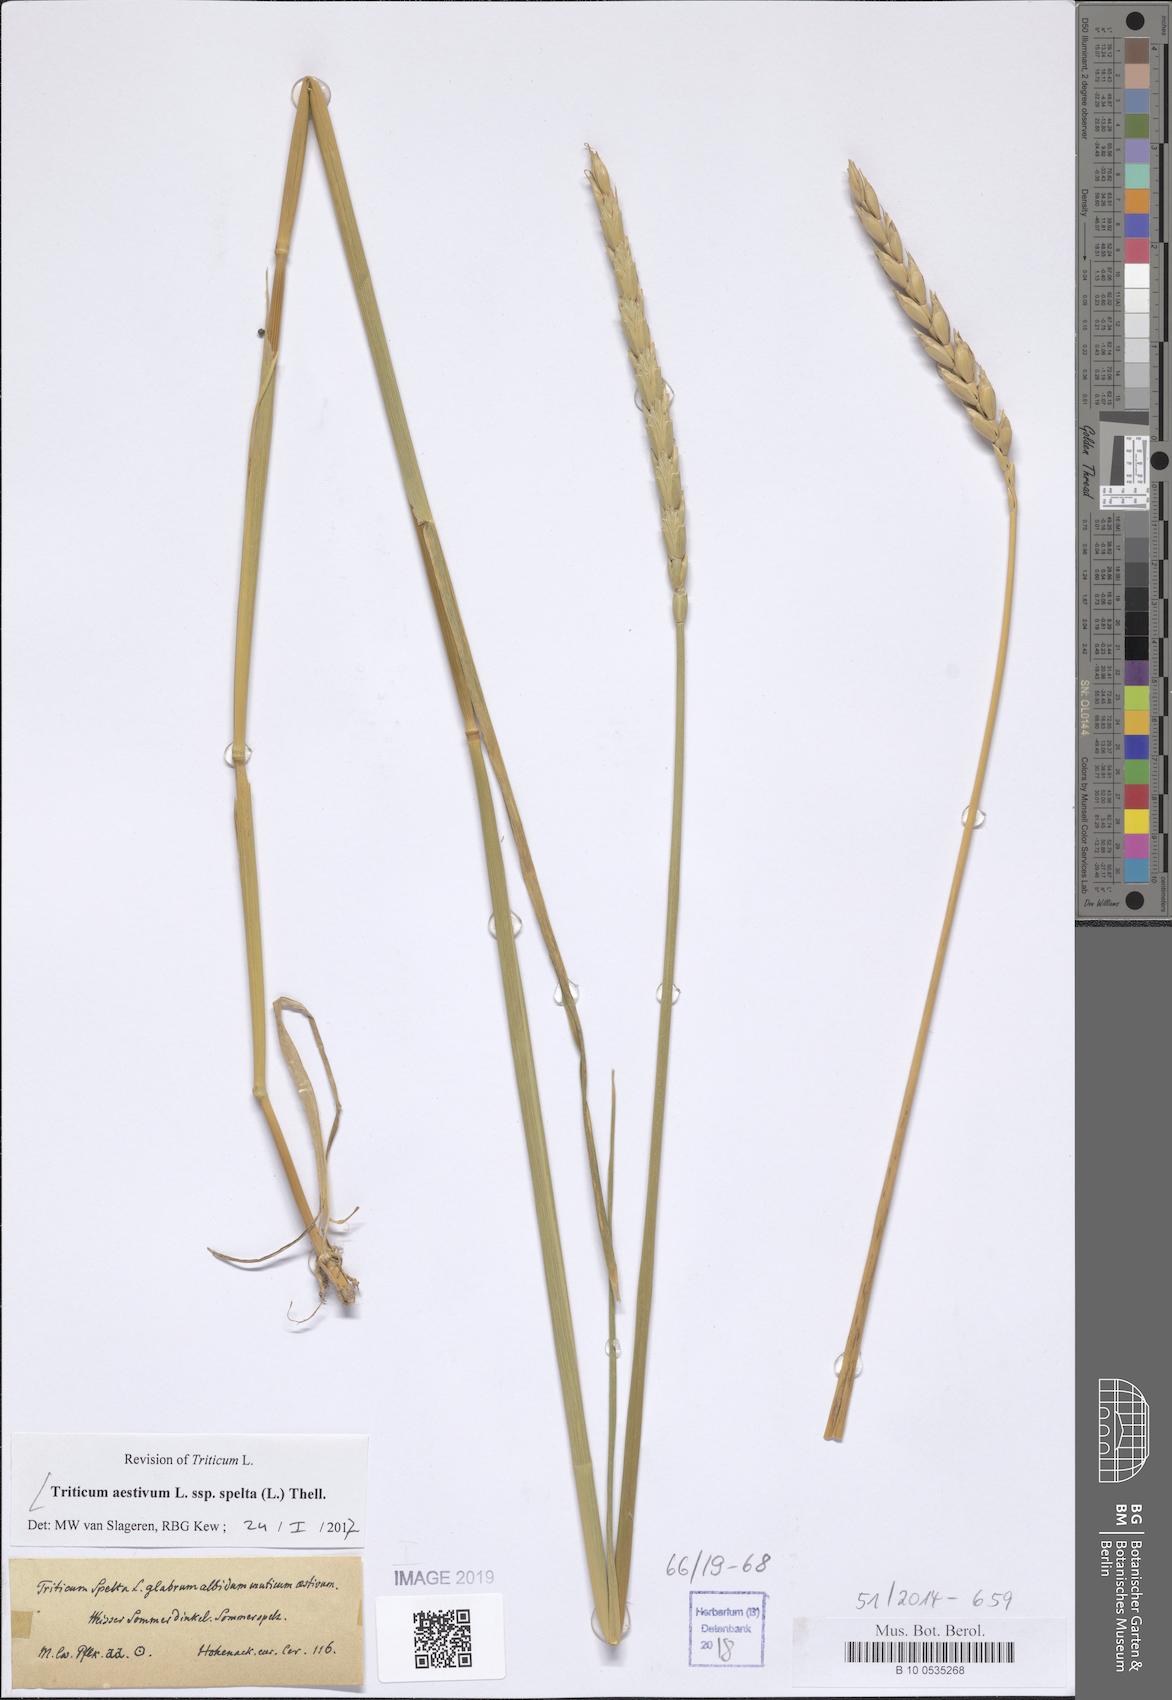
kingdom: Plantae
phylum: Tracheophyta
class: Liliopsida
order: Poales
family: Poaceae
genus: Triticum
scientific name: Triticum aestivum
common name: Common wheat
